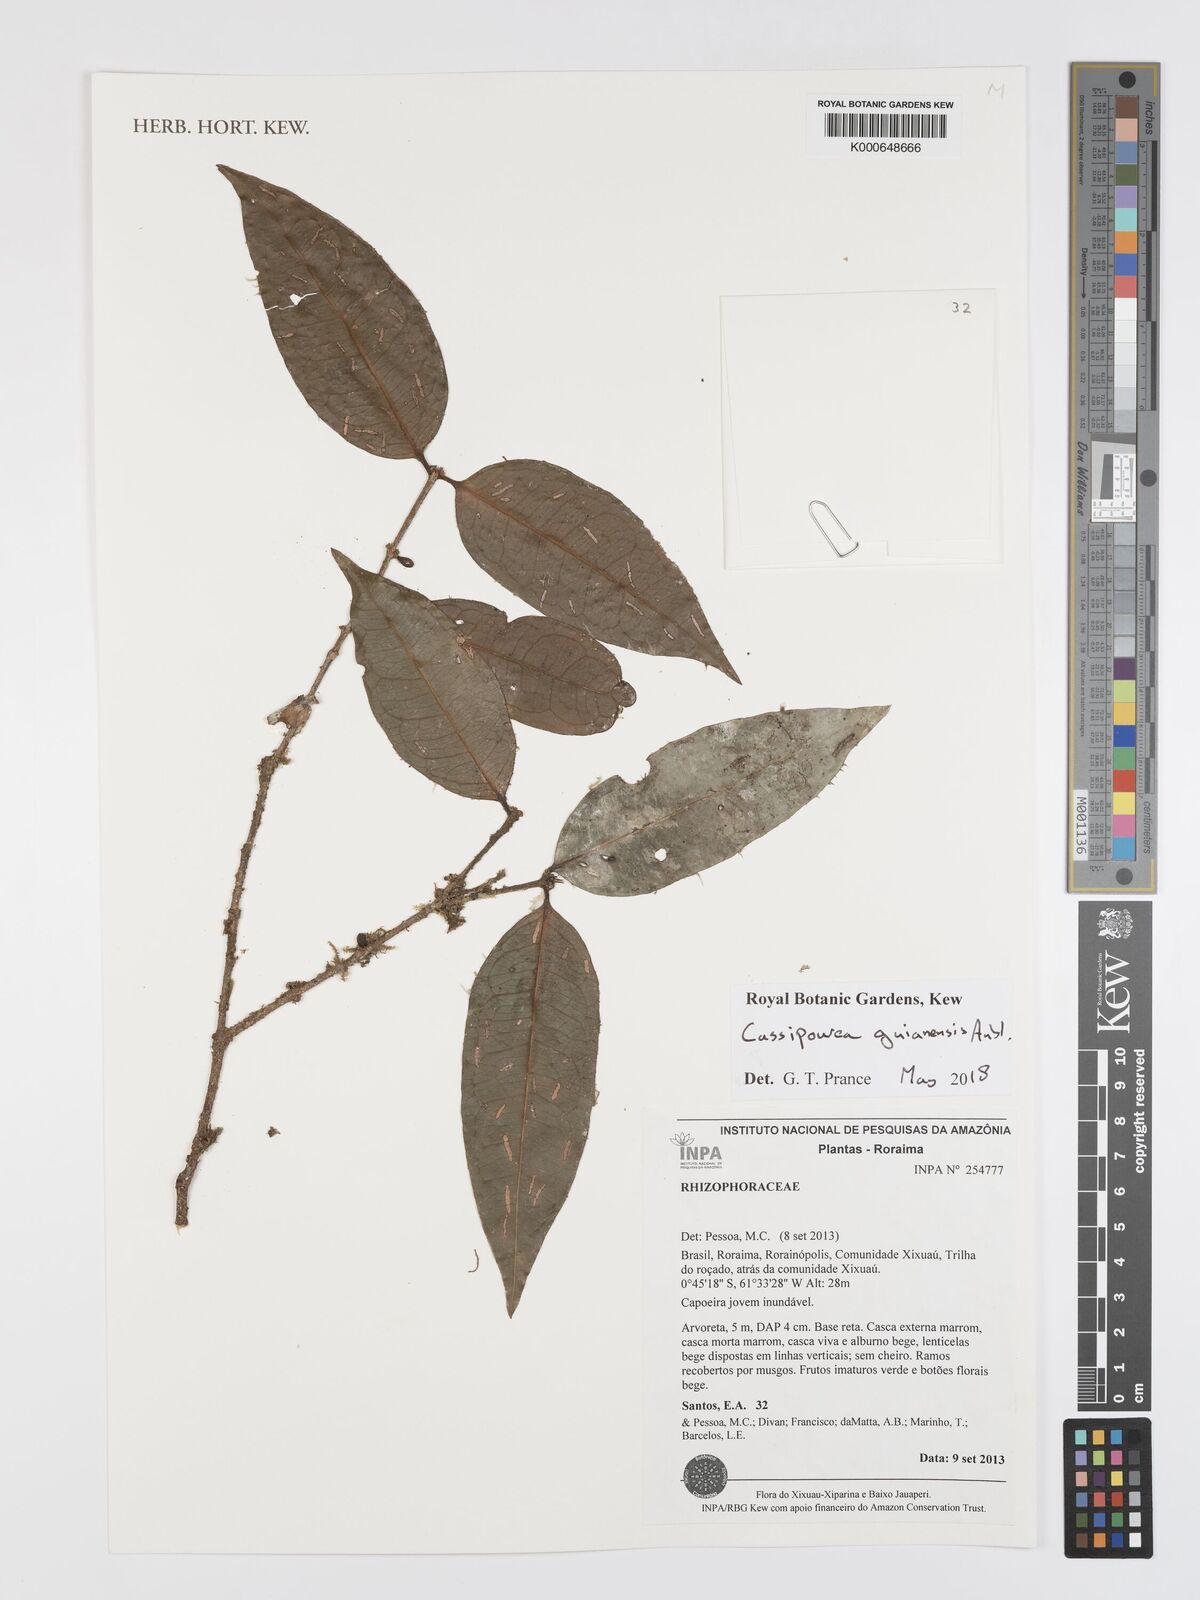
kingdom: Plantae
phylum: Tracheophyta
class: Magnoliopsida
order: Malpighiales
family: Rhizophoraceae
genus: Cassipourea
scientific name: Cassipourea guianensis
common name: Bastard waterwood
